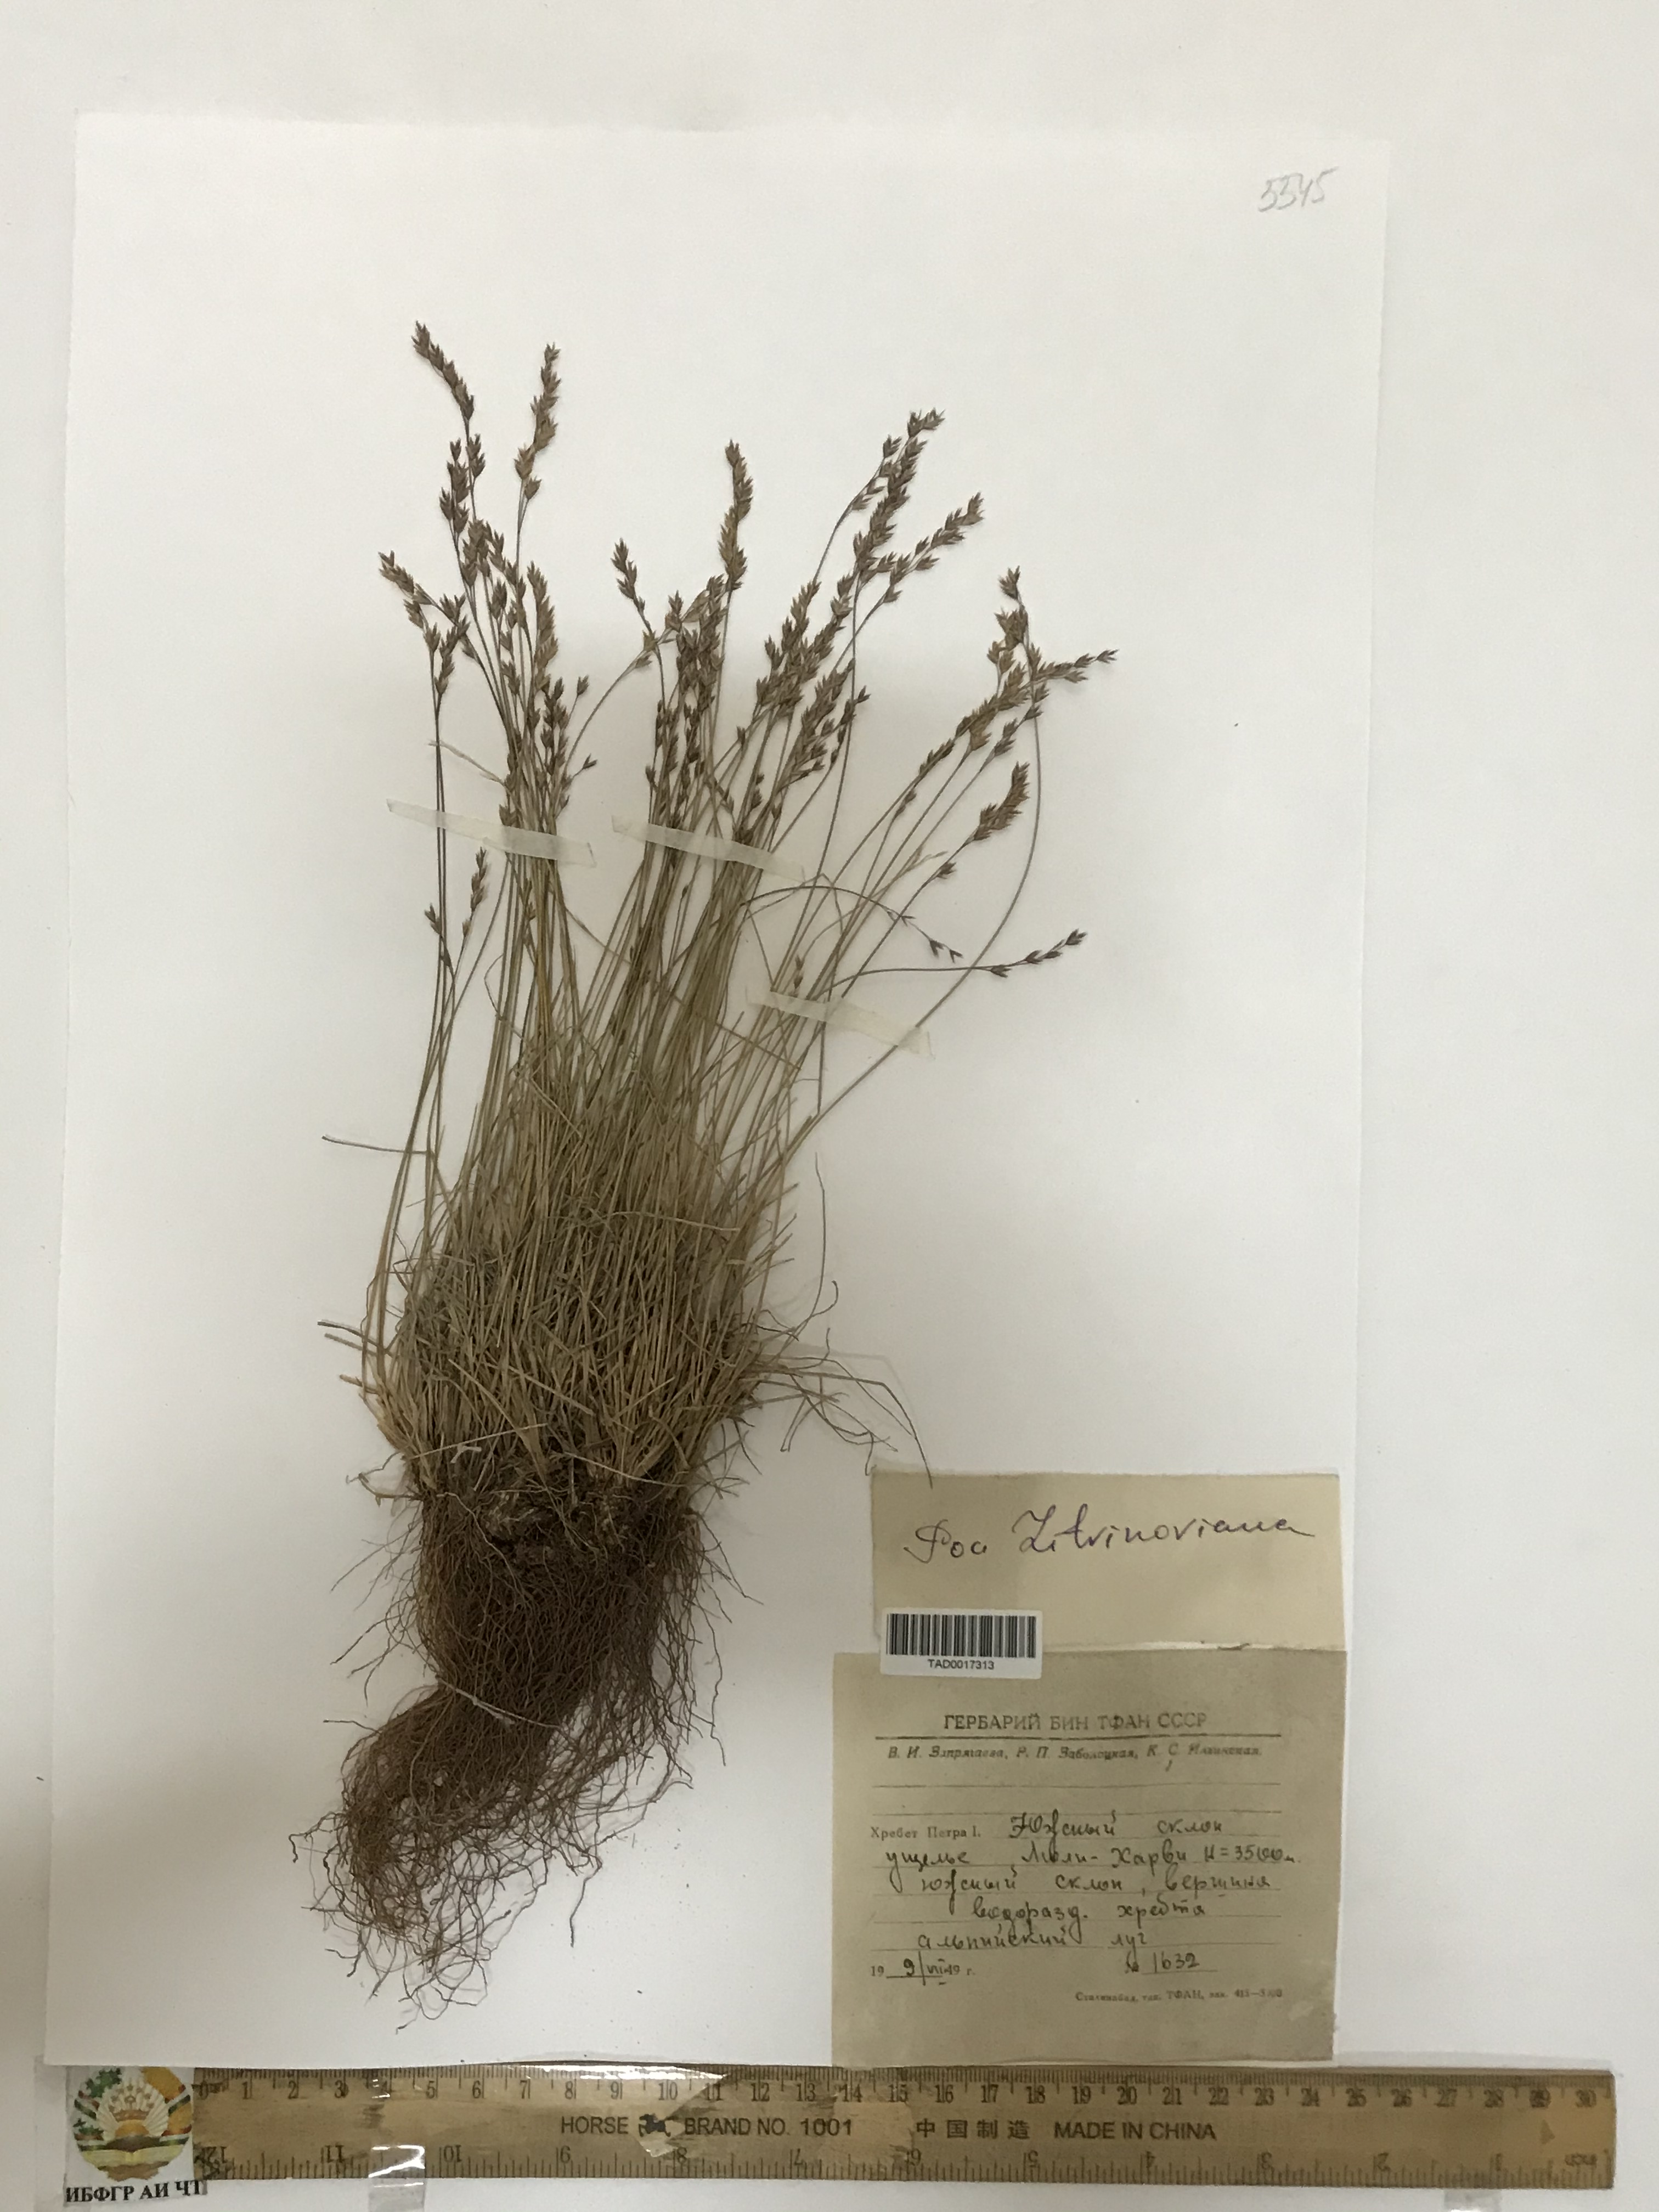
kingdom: Plantae
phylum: Tracheophyta
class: Liliopsida
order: Poales
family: Poaceae
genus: Poa
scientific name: Poa glauca
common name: Glaucous bluegrass
